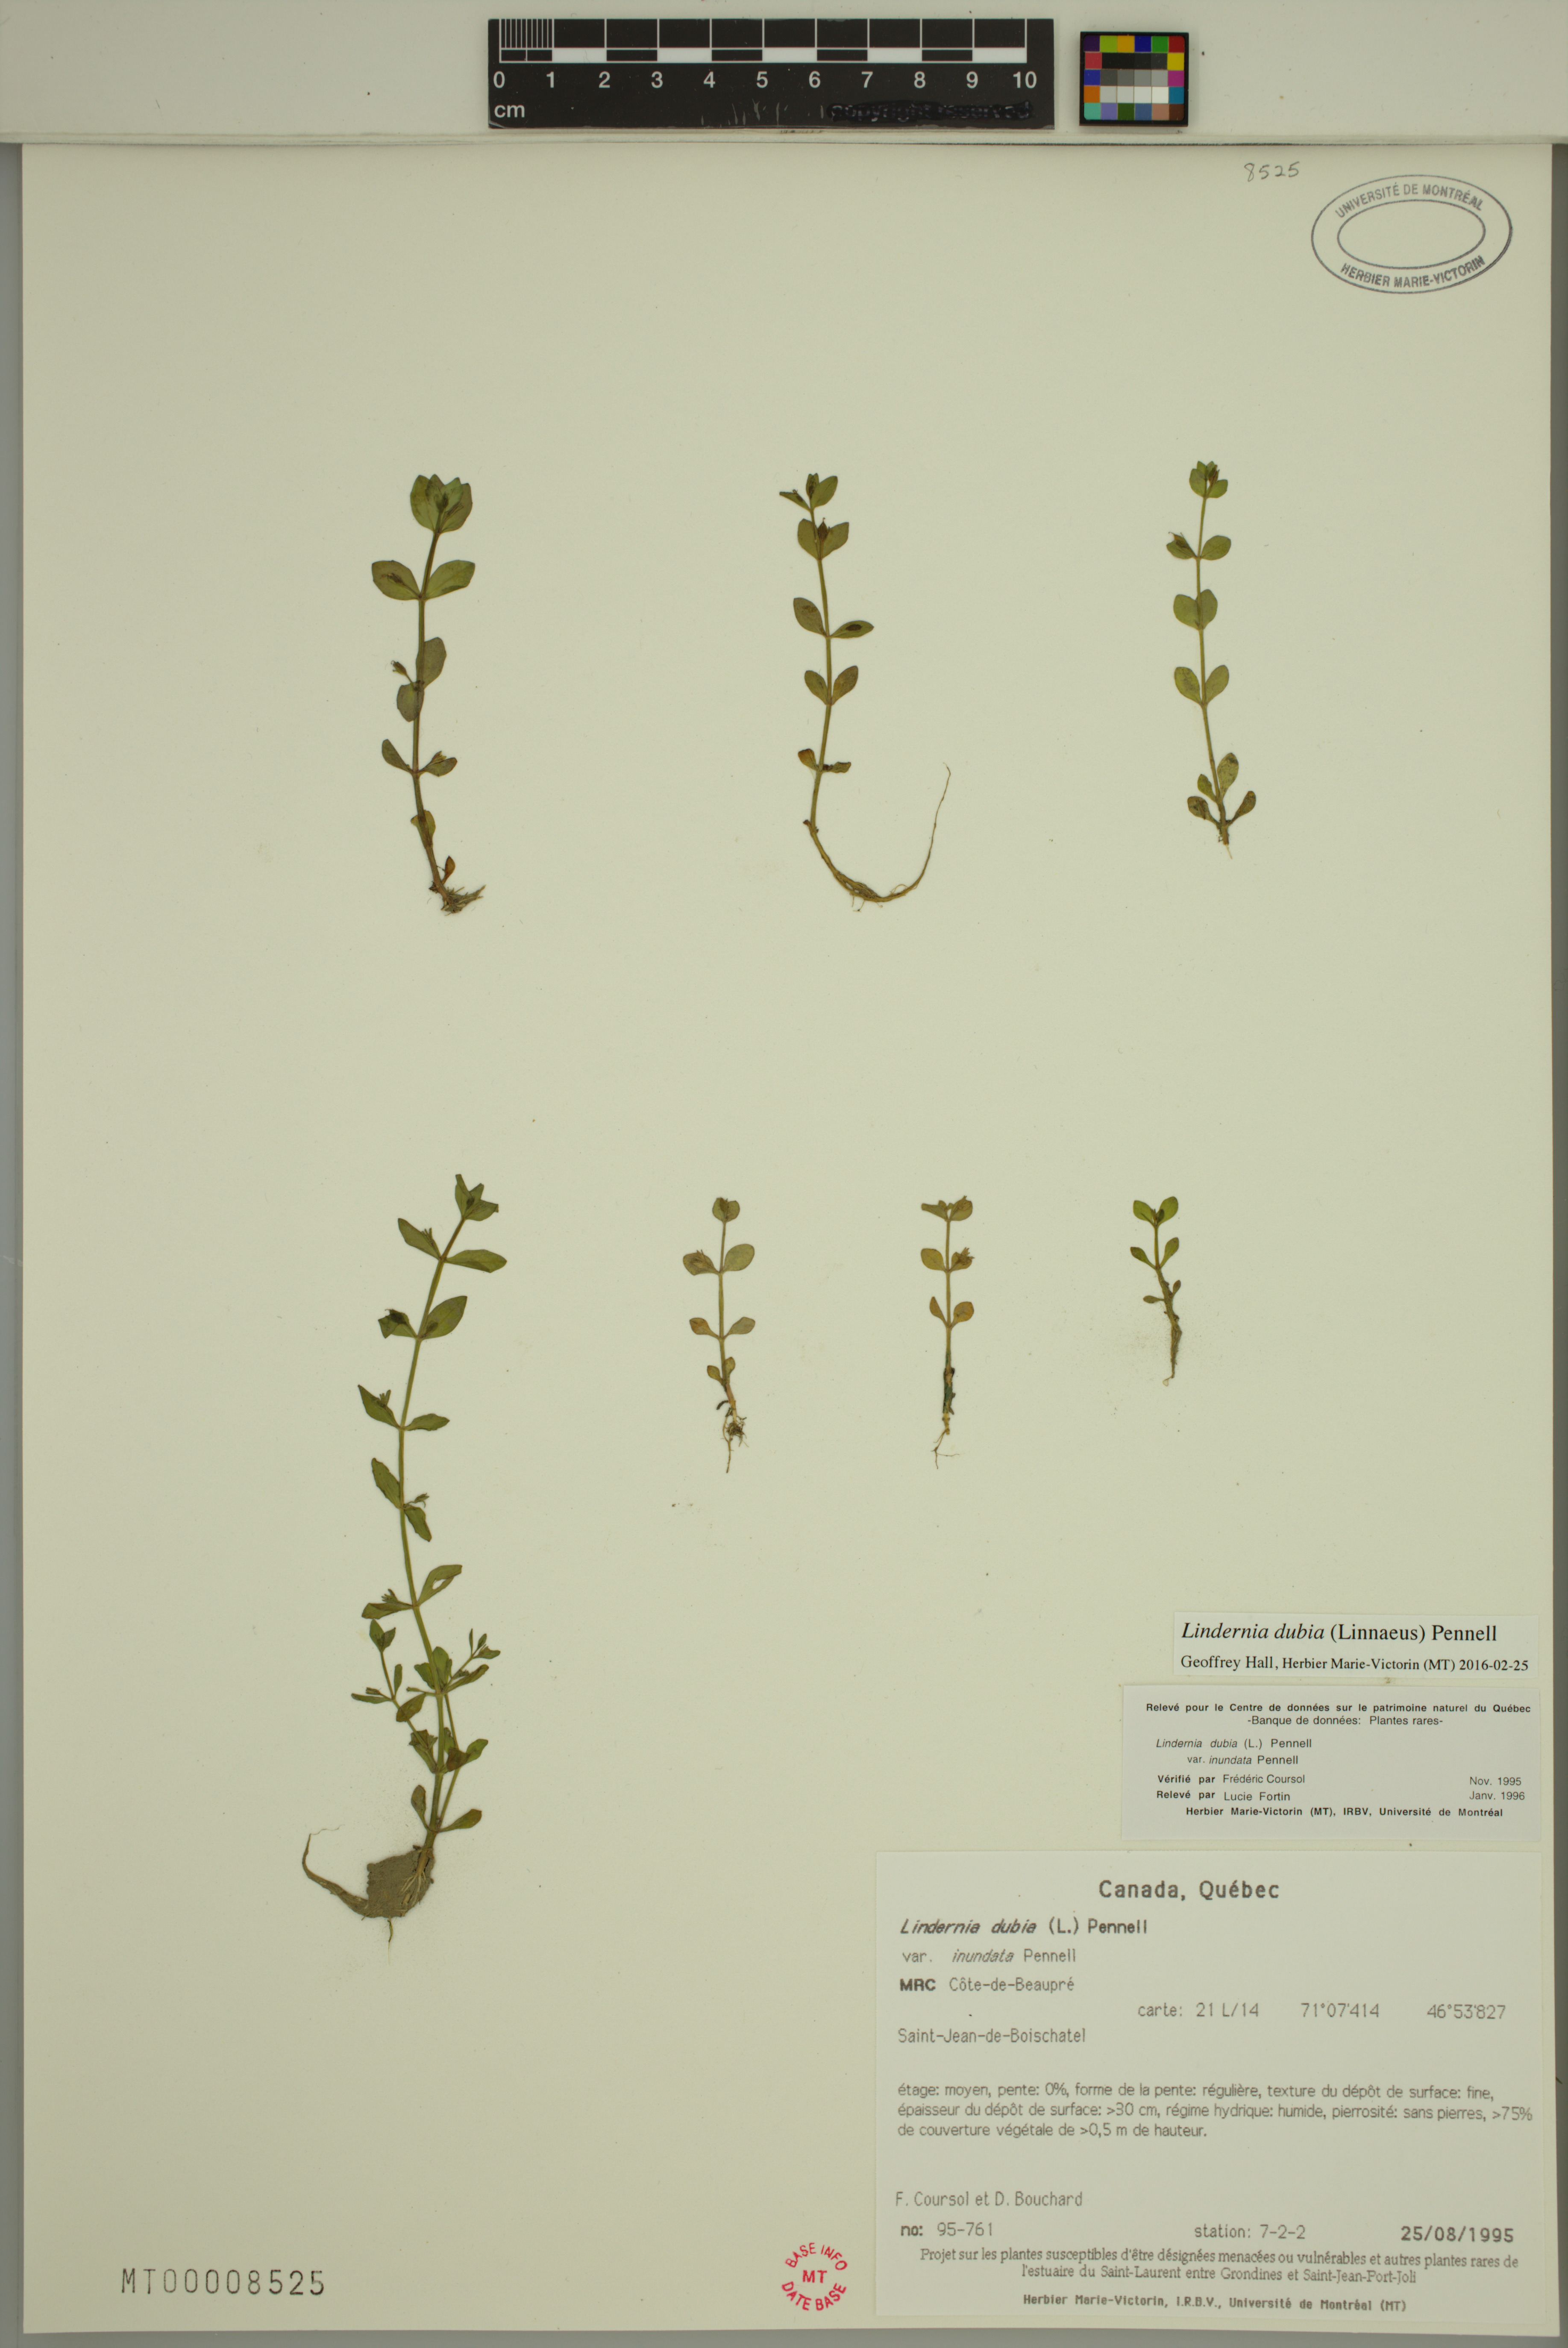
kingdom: Plantae
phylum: Tracheophyta
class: Magnoliopsida
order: Lamiales
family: Linderniaceae
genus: Lindernia
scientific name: Lindernia dubia
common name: Annual false pimpernel
